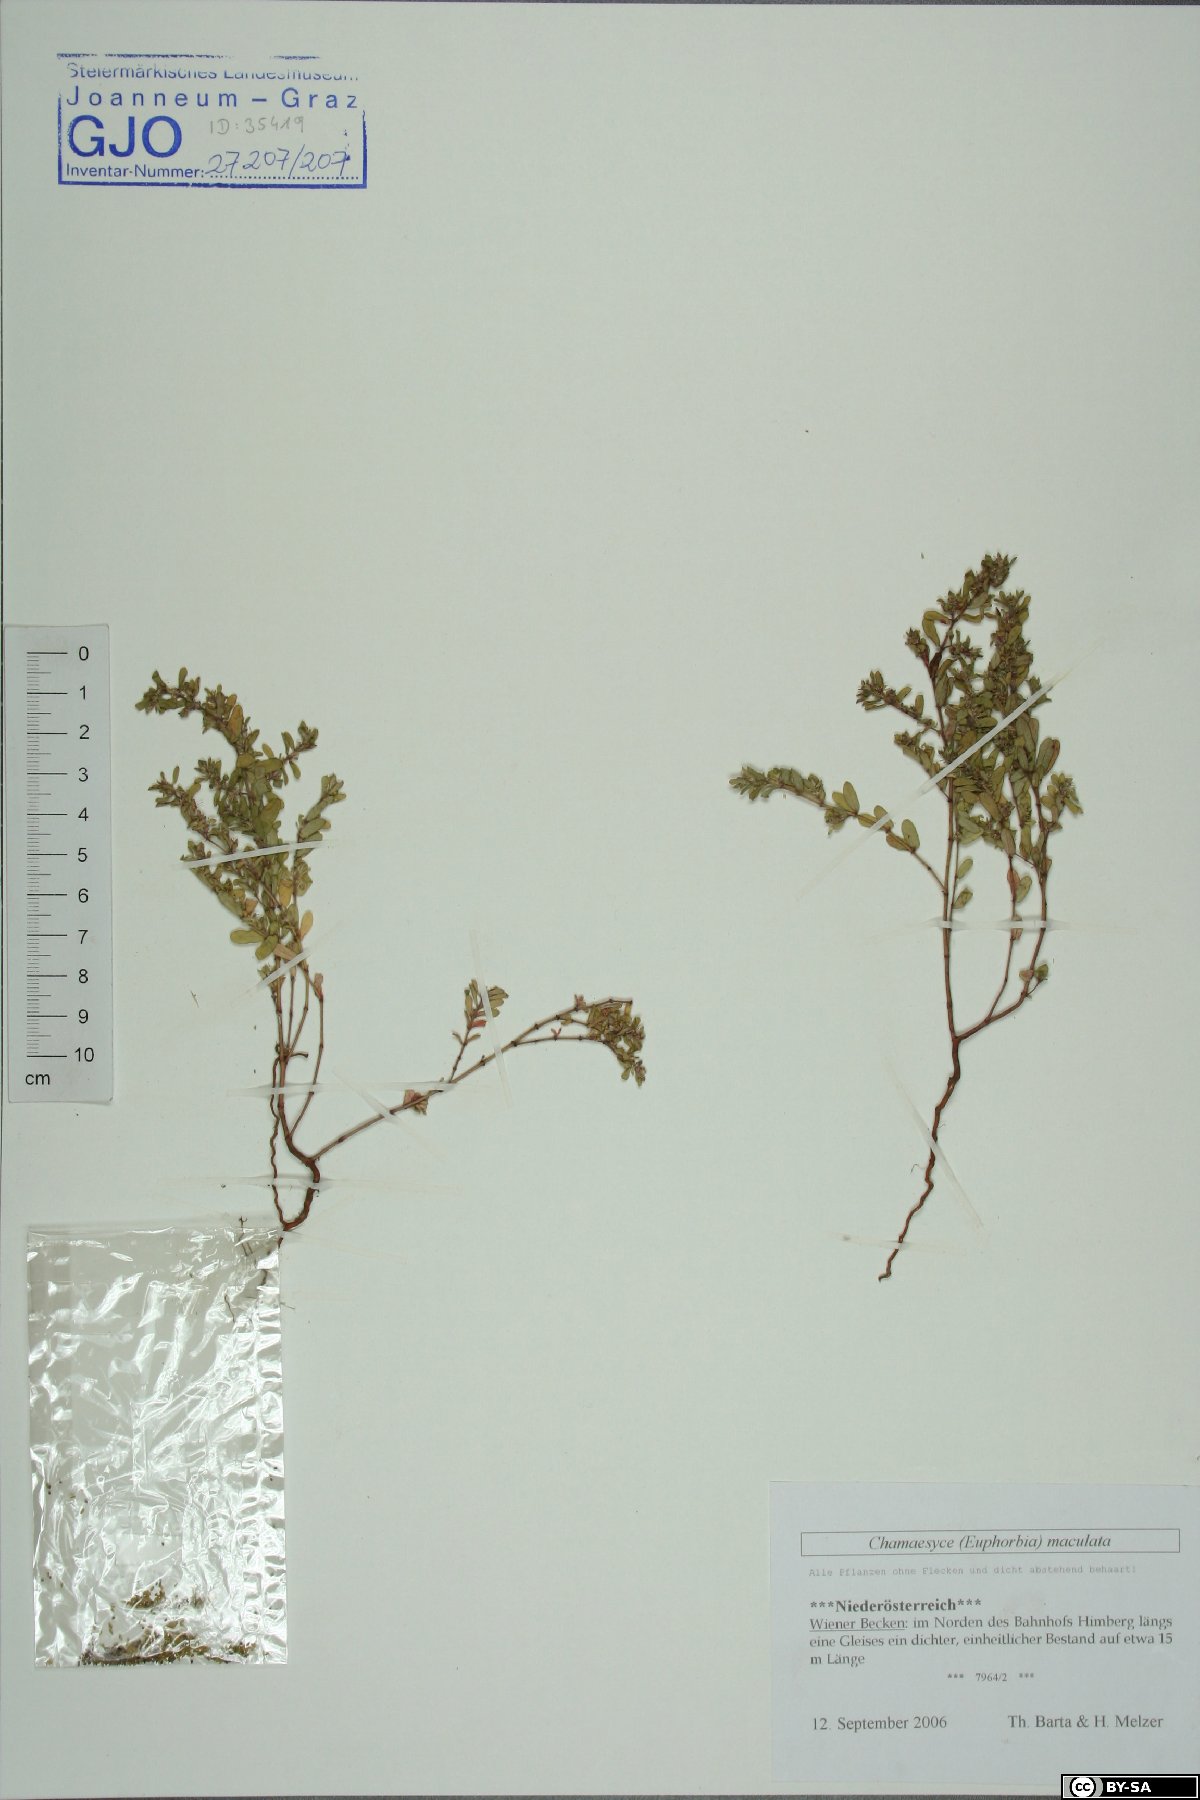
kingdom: Plantae
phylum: Tracheophyta
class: Magnoliopsida
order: Malpighiales
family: Euphorbiaceae
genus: Euphorbia
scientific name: Euphorbia maculata
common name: Spotted spurge
